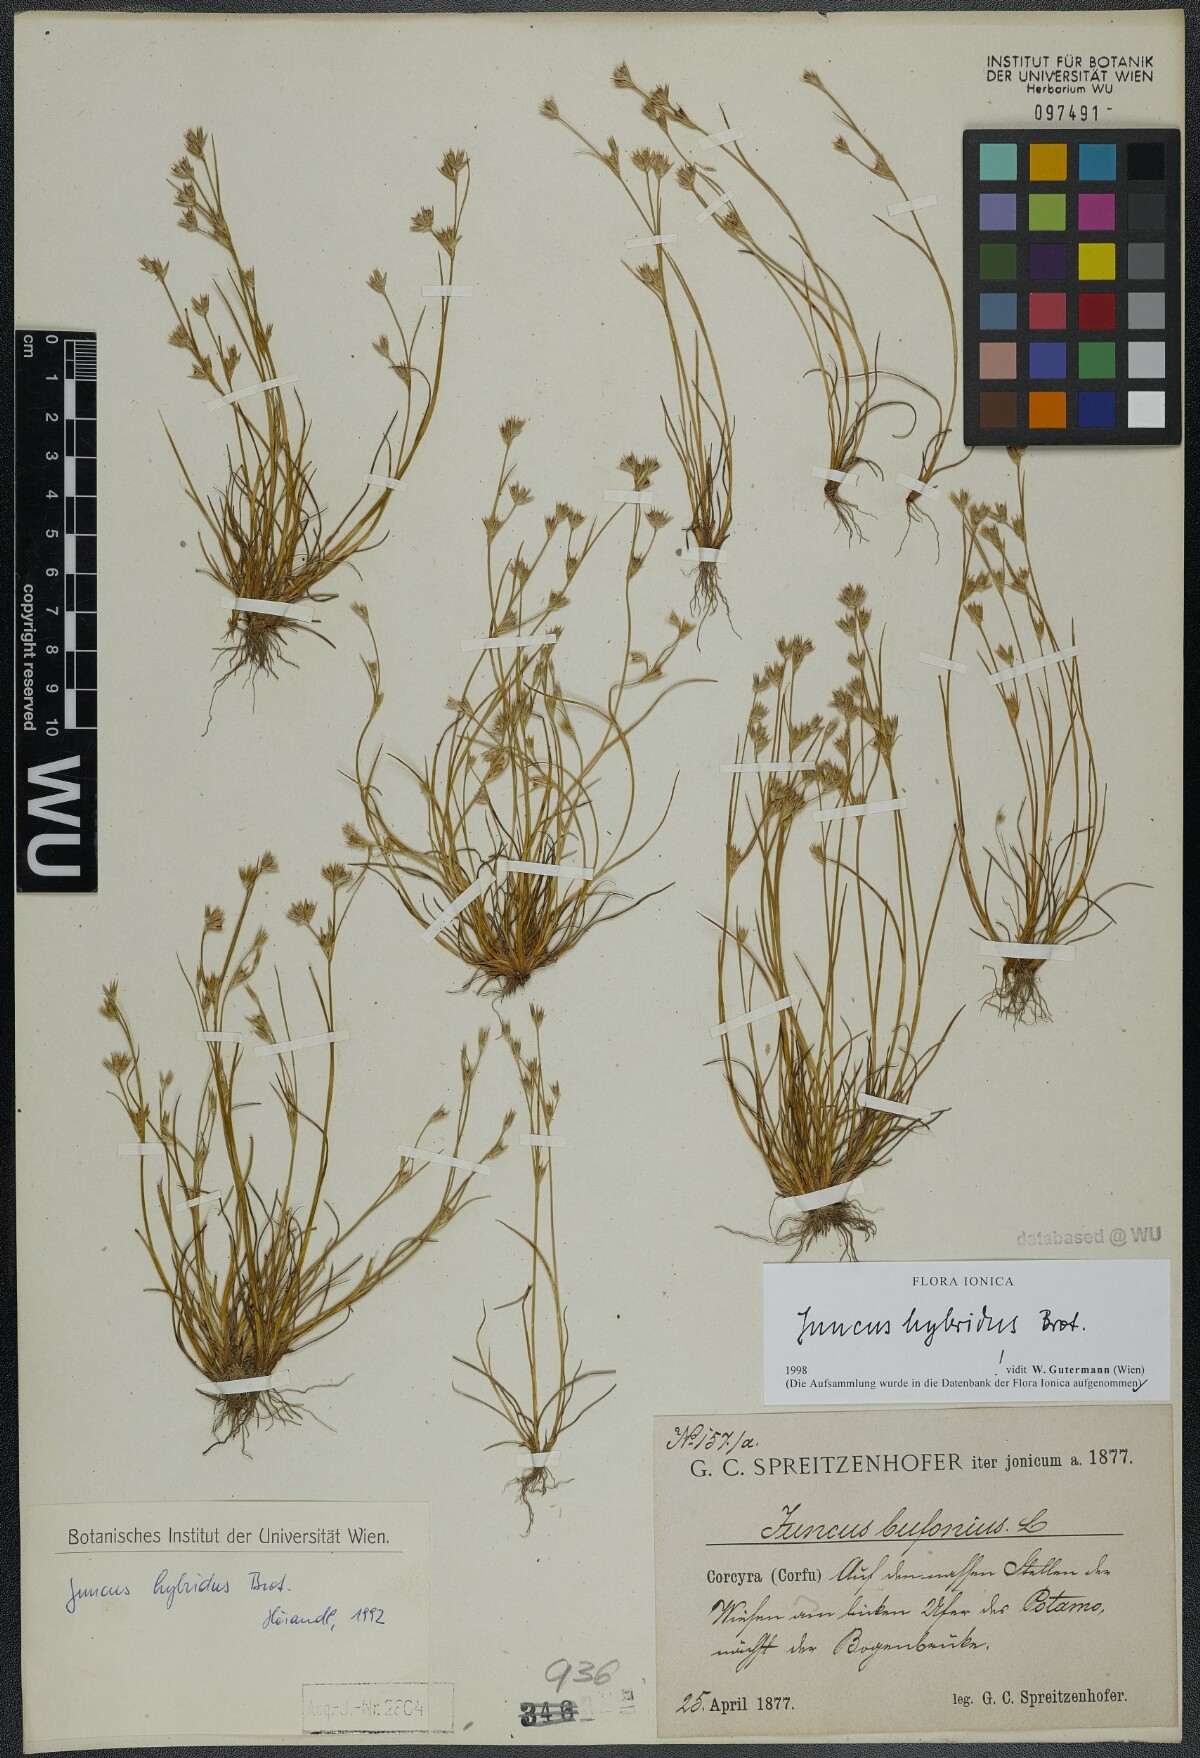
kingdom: Plantae
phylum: Tracheophyta
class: Liliopsida
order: Poales
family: Juncaceae
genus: Juncus
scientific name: Juncus hybridus
